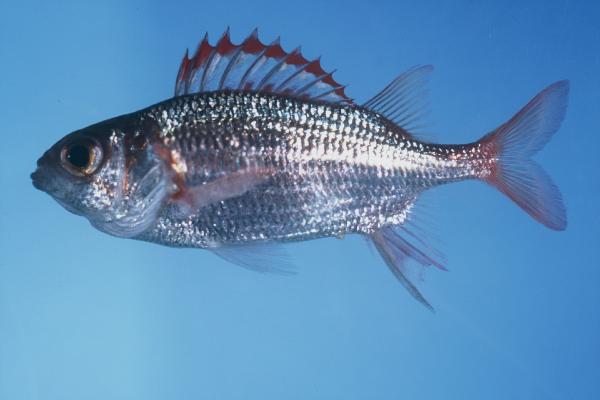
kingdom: Animalia
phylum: Chordata
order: Beryciformes
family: Holocentridae
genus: Sargocentron
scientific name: Sargocentron punctatissimum
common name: Peppered squirrelfish
